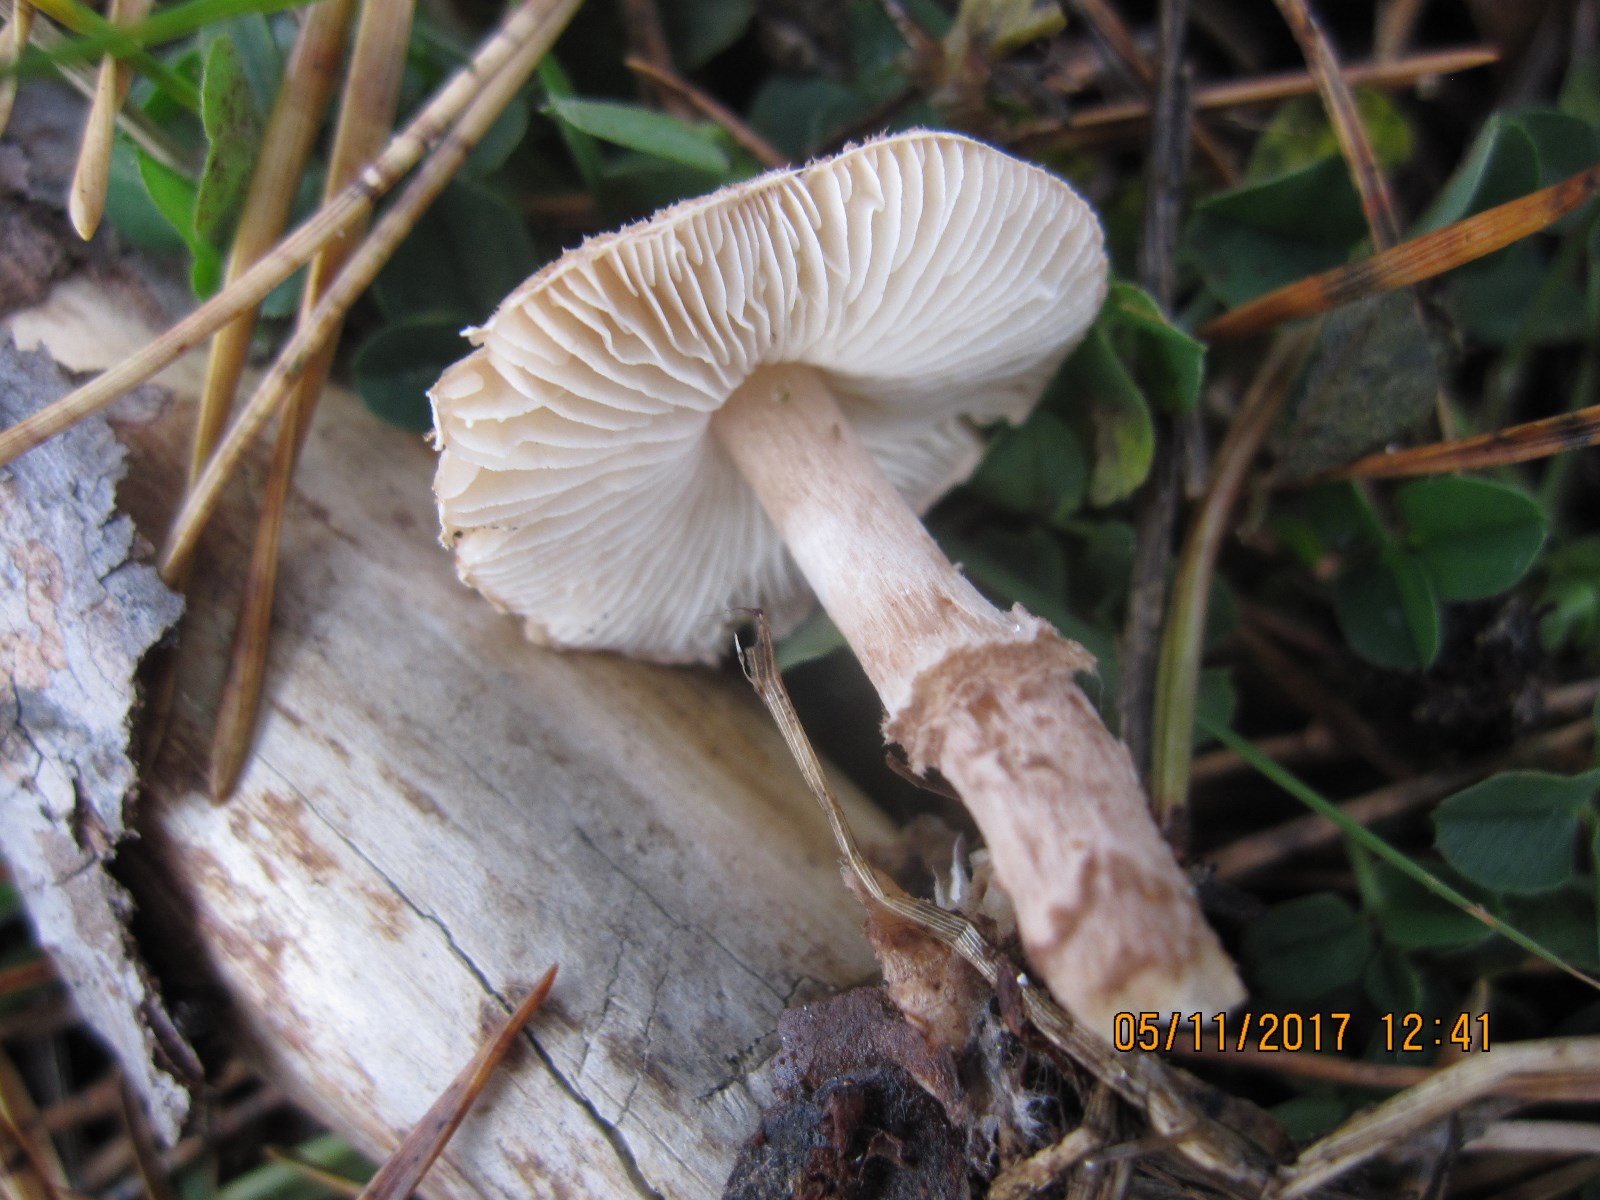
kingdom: Fungi
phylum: Basidiomycota
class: Agaricomycetes
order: Agaricales
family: Agaricaceae
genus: Lepiota
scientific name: Lepiota pseudolilacea
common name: gråbrun parasolhat
